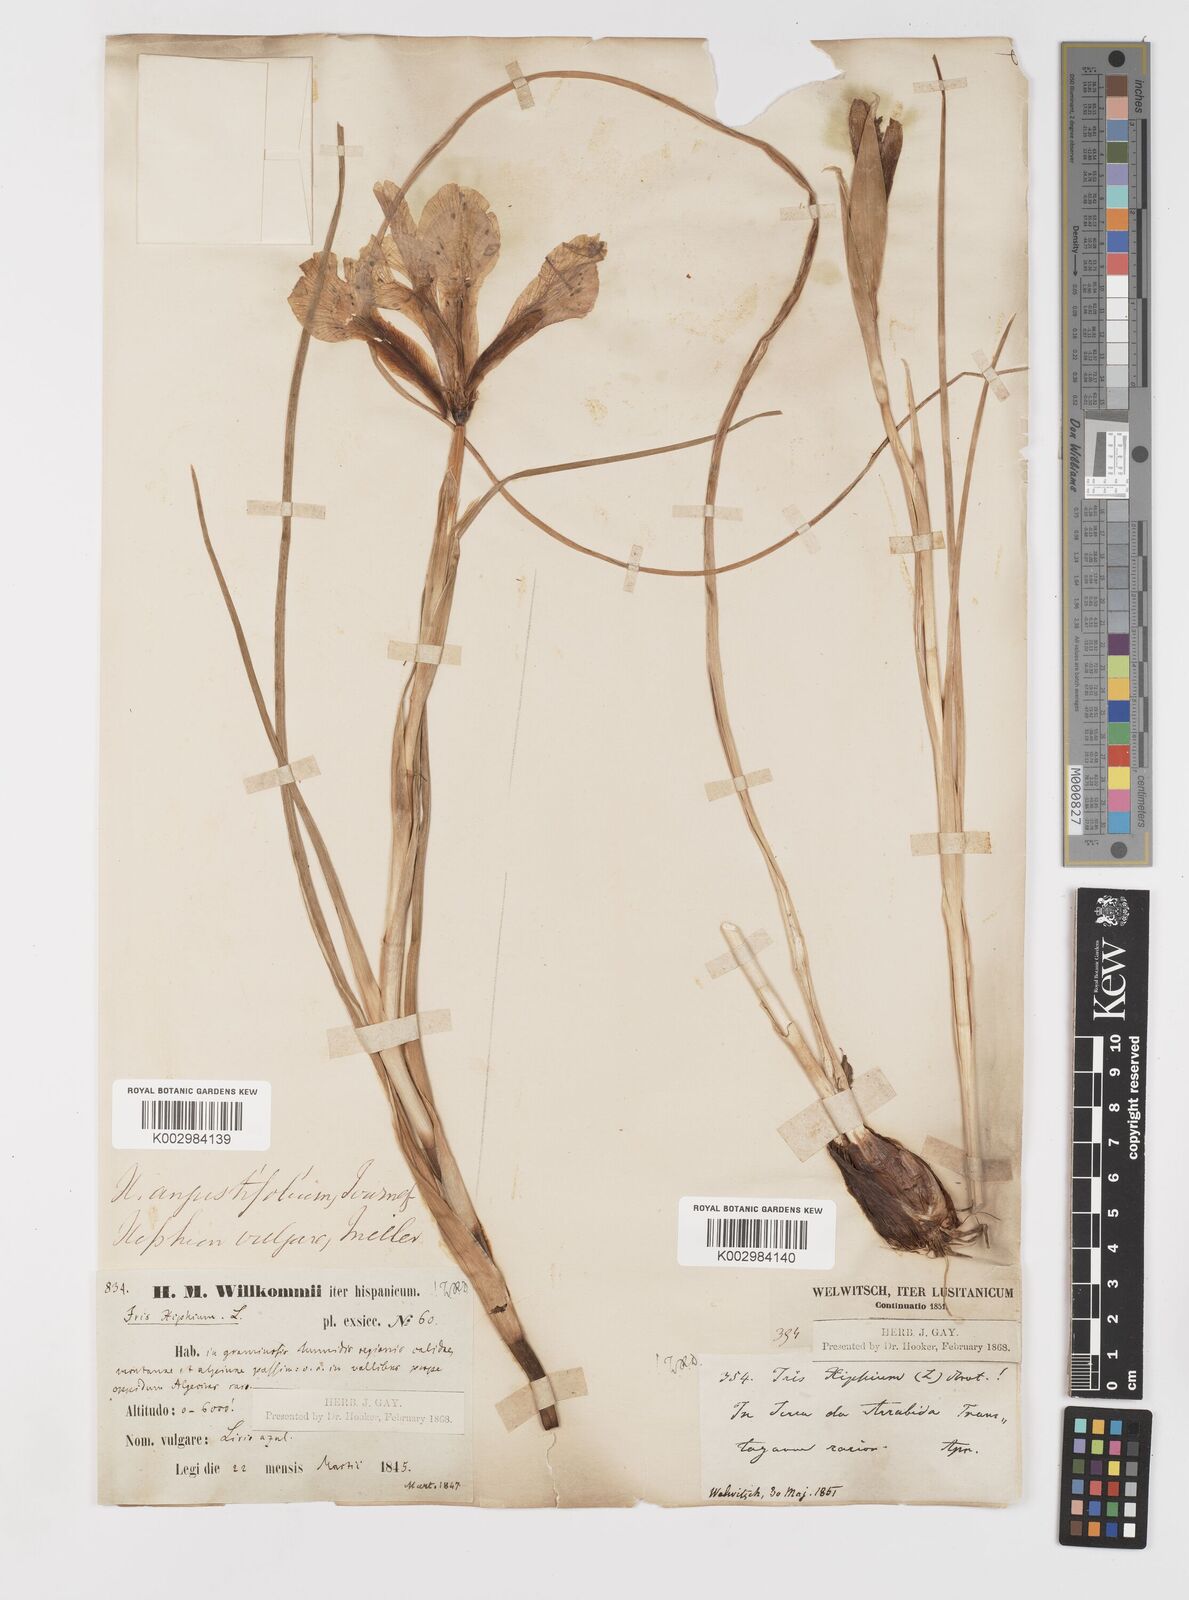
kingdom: Plantae
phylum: Tracheophyta
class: Liliopsida
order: Asparagales
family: Iridaceae
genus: Iris
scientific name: Iris xiphium
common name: Spanish iris
